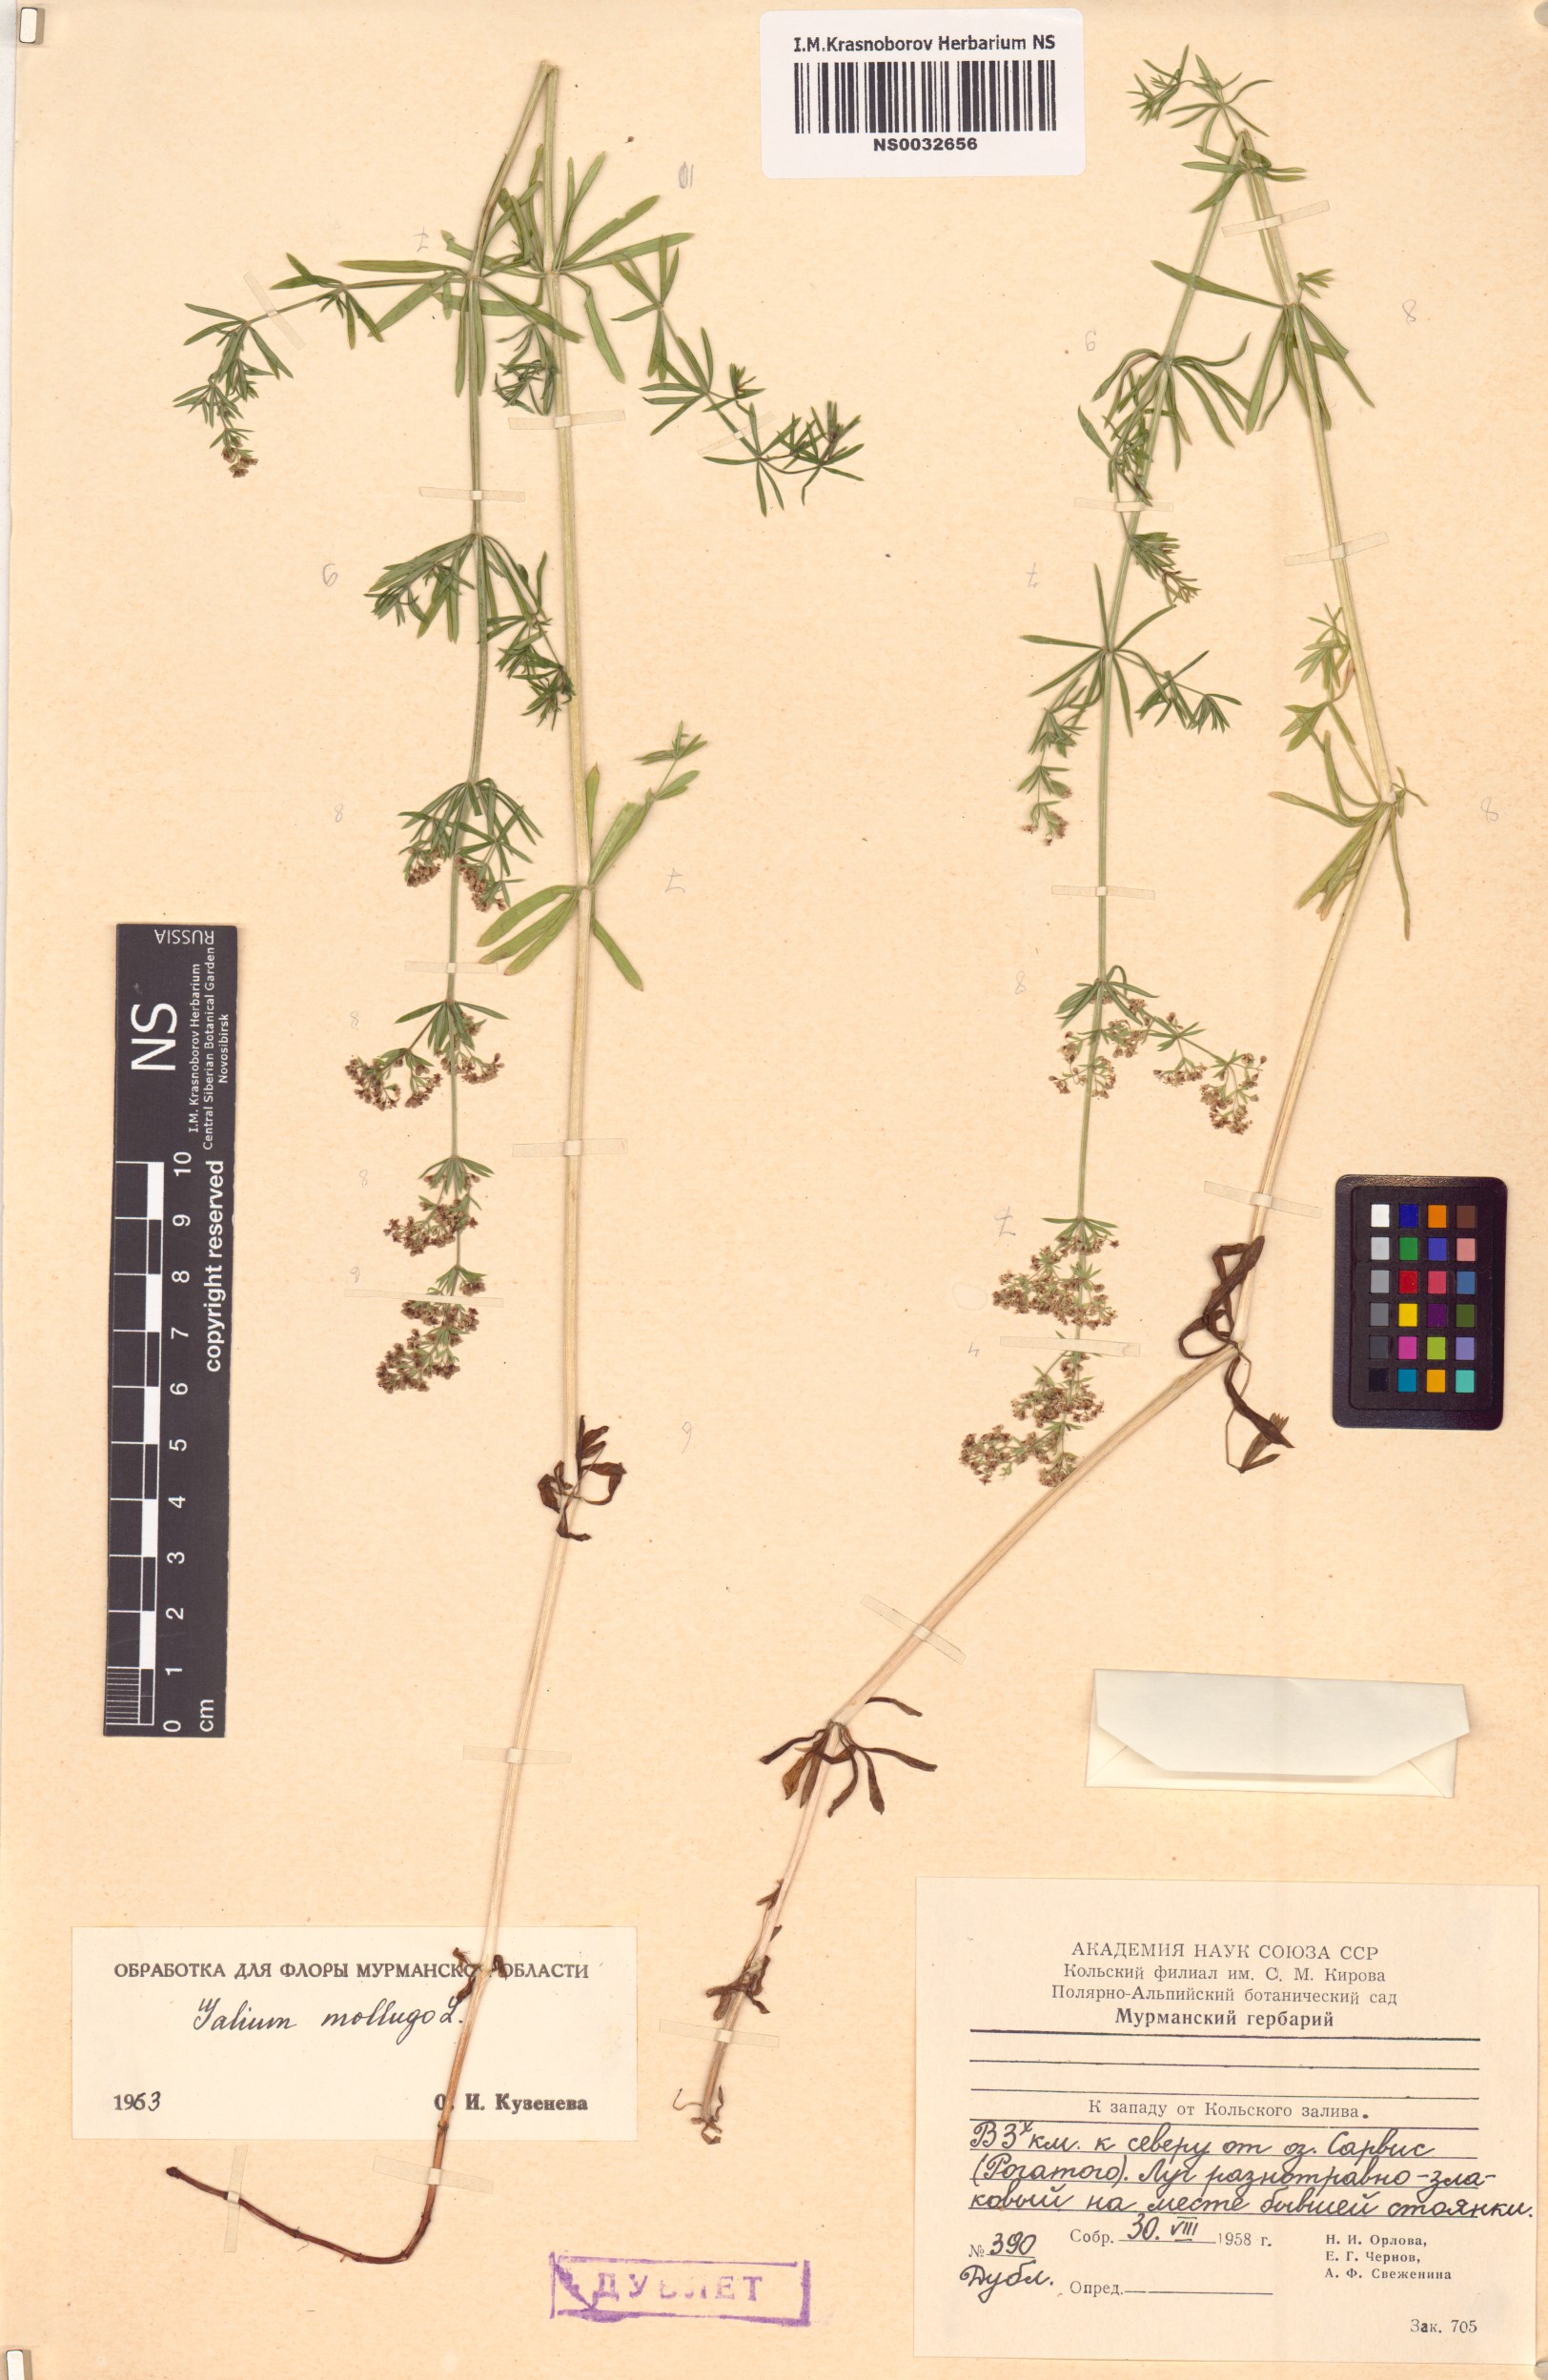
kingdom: Plantae
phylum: Tracheophyta
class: Magnoliopsida
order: Gentianales
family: Rubiaceae
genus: Galium
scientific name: Galium mollugo
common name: Hedge bedstraw
